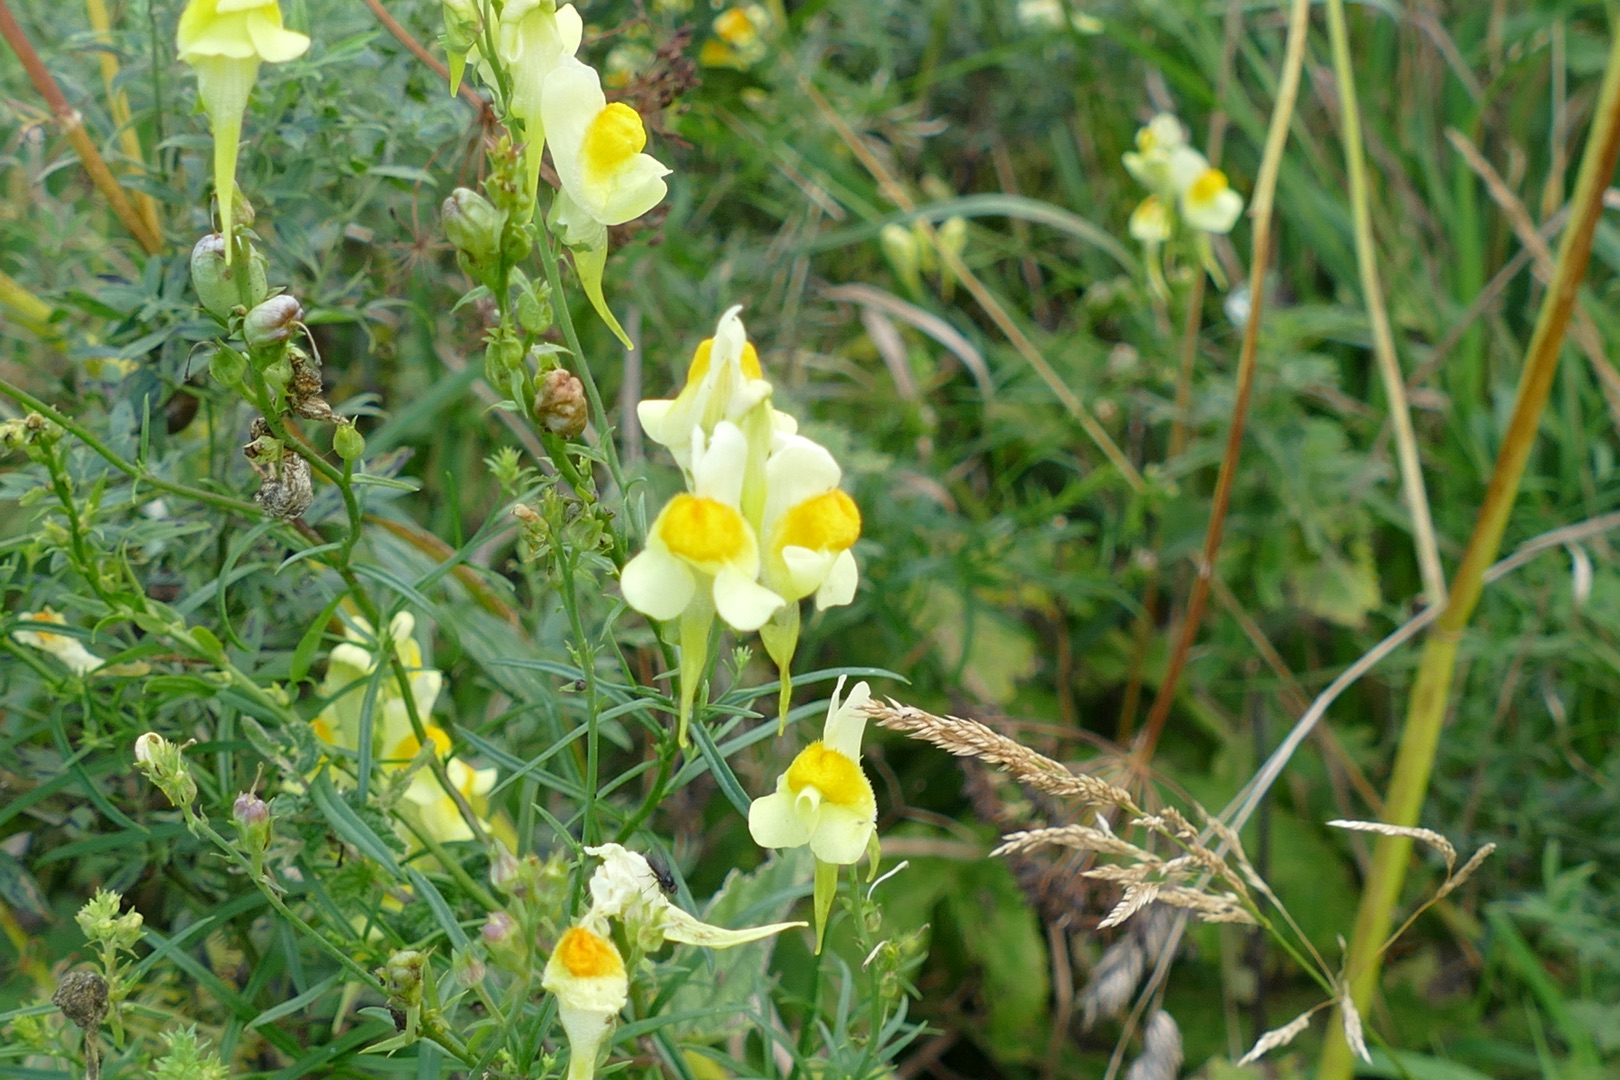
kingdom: Plantae
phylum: Tracheophyta
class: Magnoliopsida
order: Lamiales
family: Plantaginaceae
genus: Linaria
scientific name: Linaria vulgaris
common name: Almindelig torskemund
